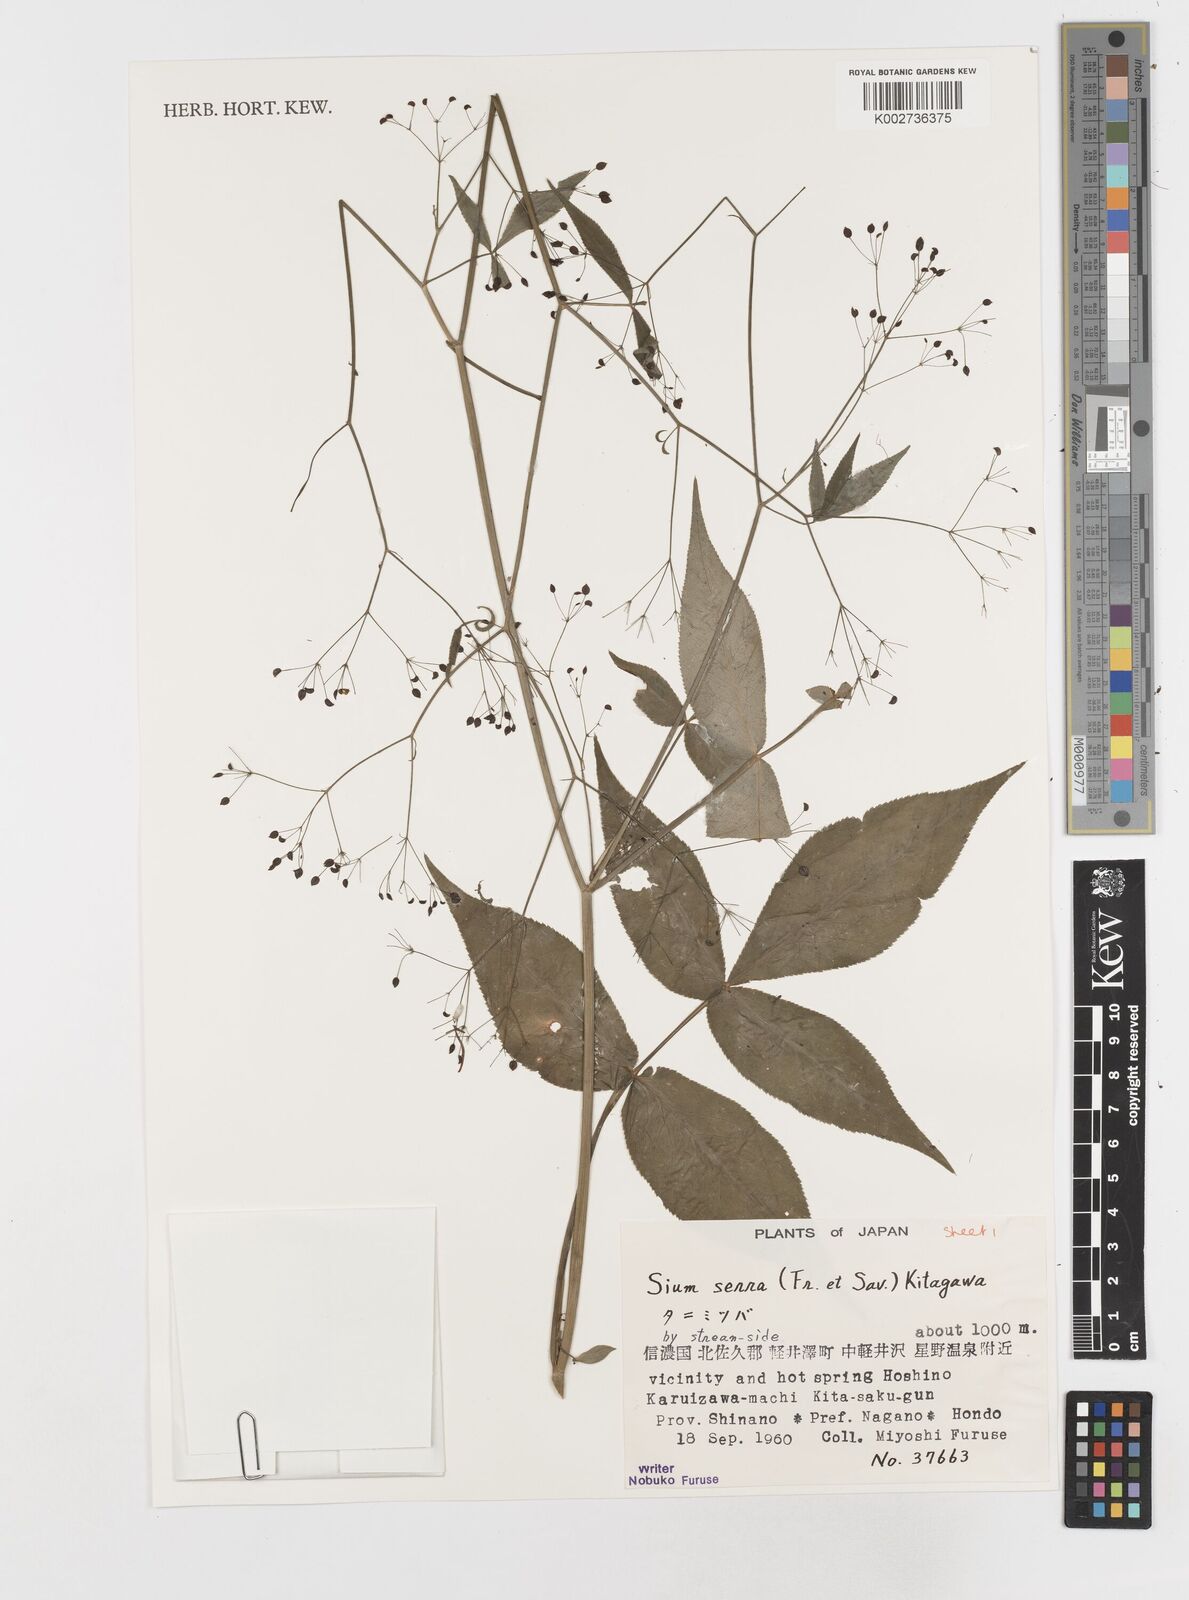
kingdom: Plantae
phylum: Tracheophyta
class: Magnoliopsida
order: Apiales
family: Apiaceae
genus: Sium
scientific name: Sium serra
